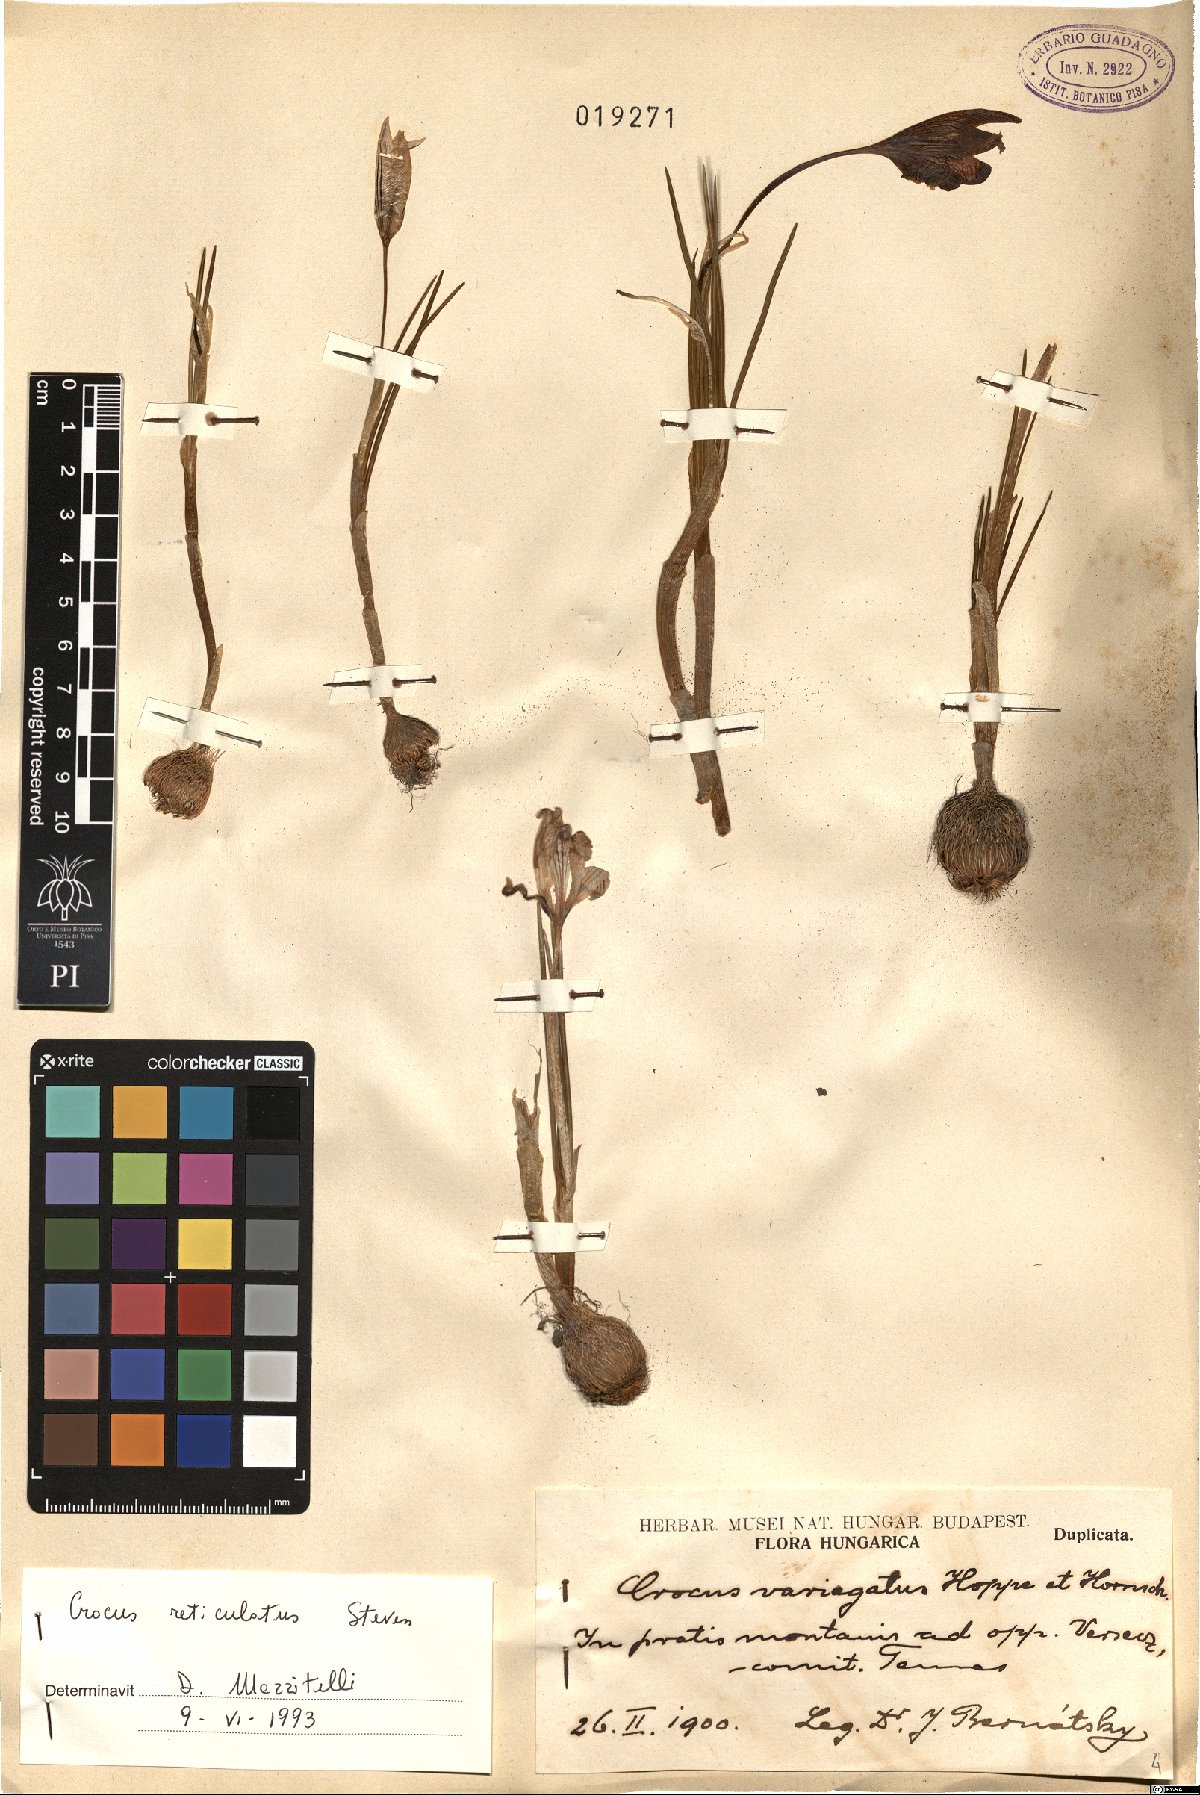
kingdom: Plantae
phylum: Tracheophyta
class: Liliopsida
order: Asparagales
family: Iridaceae
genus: Crocus
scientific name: Crocus reticulatus
